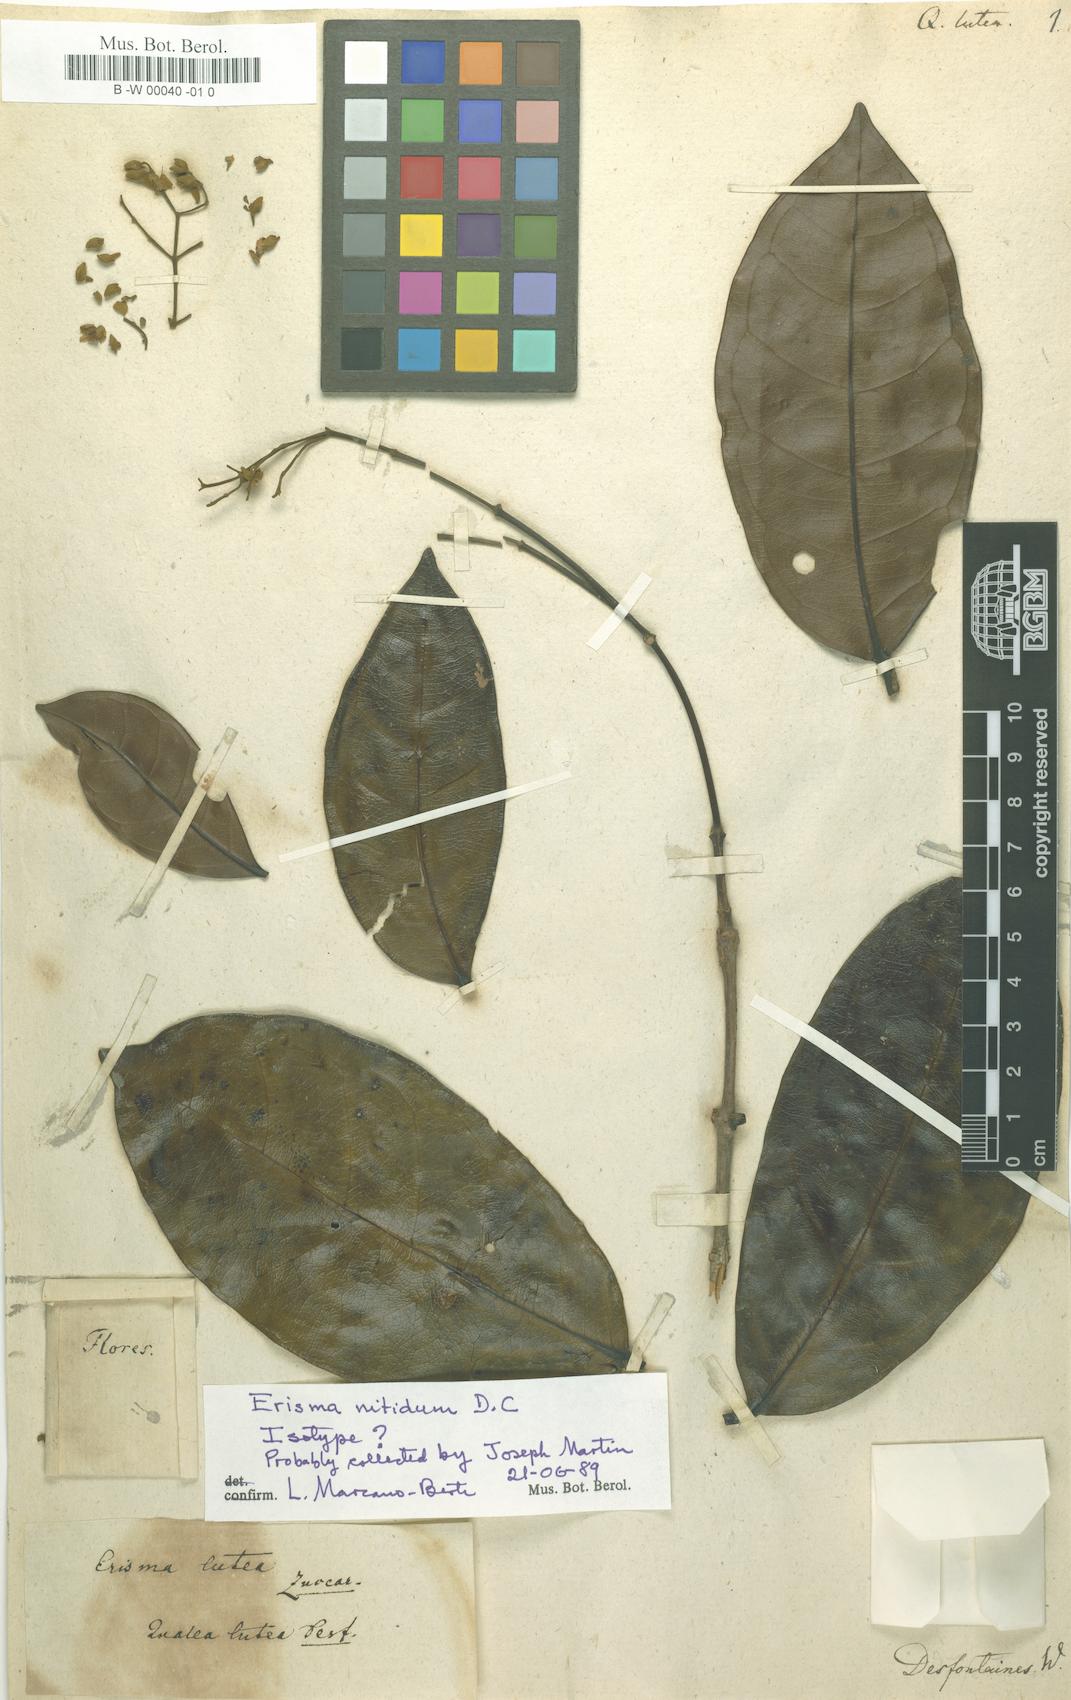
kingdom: Plantae
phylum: Tracheophyta
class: Magnoliopsida
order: Myrtales
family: Vochysiaceae
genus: Erisma
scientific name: Erisma nitidum
